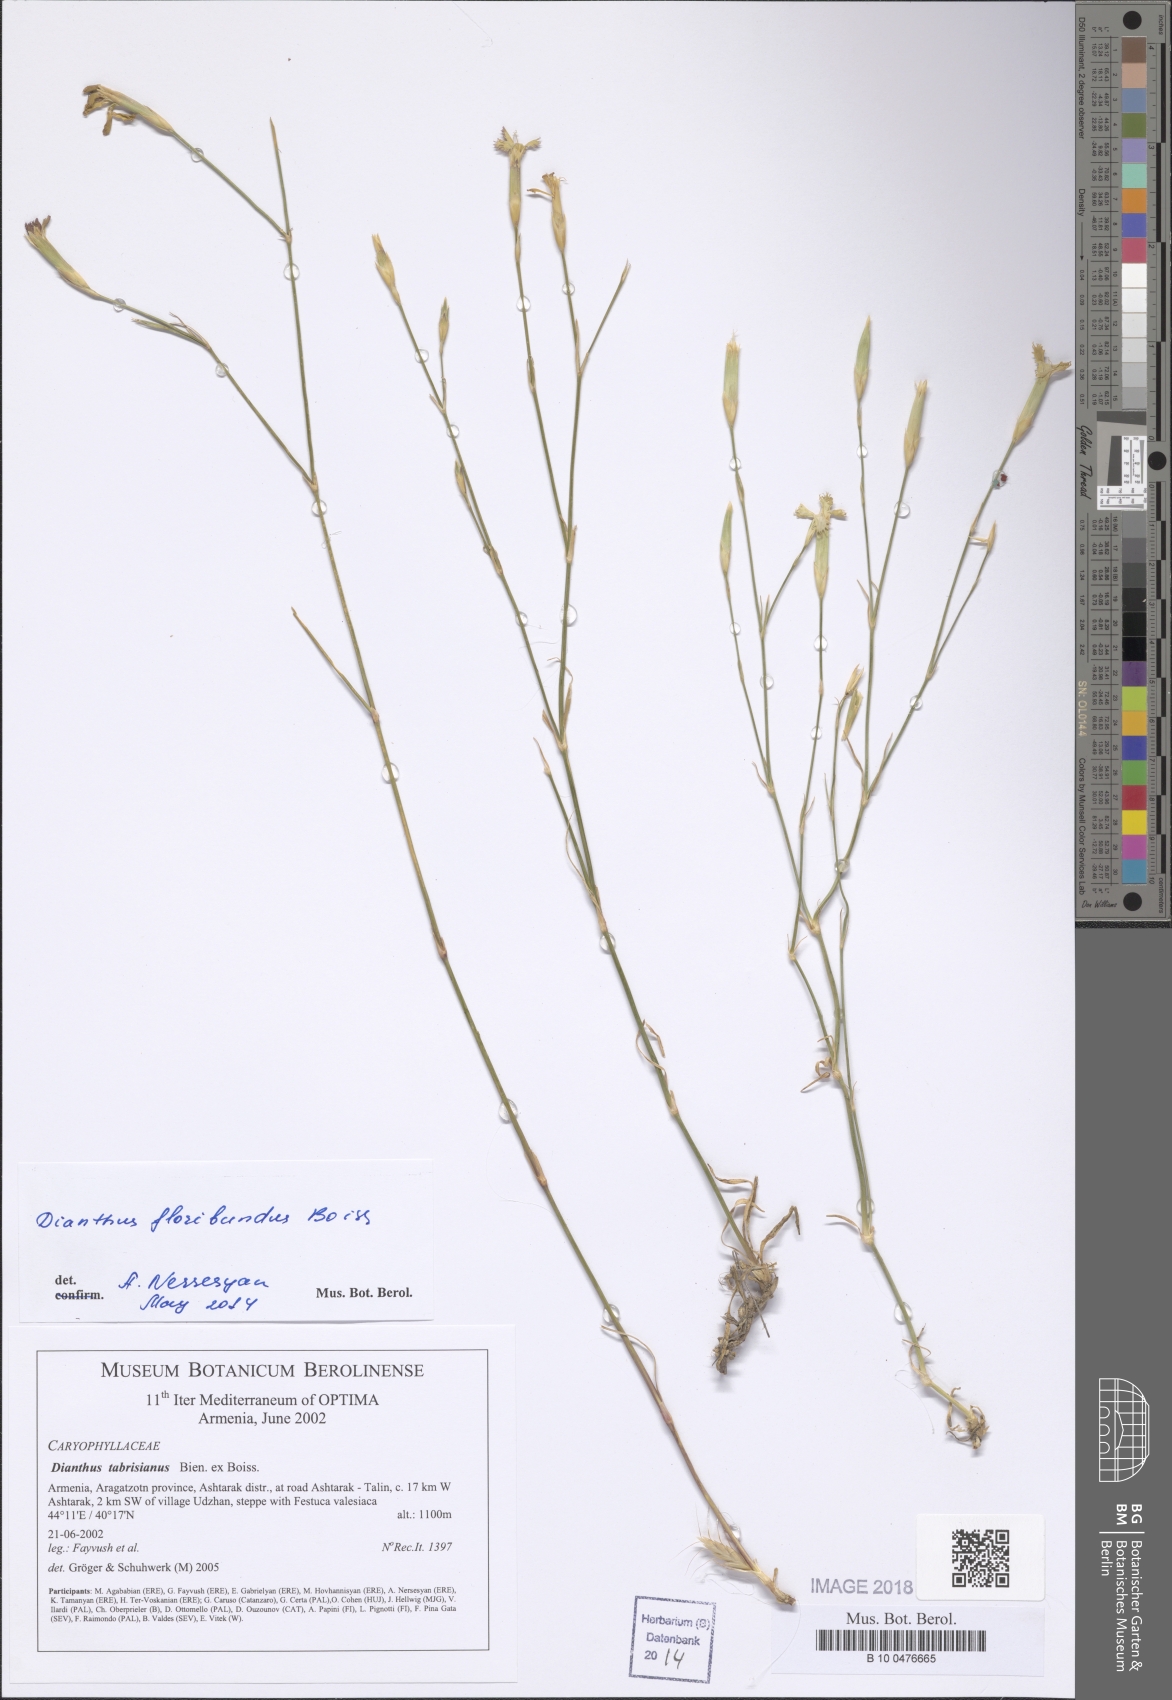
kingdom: Plantae
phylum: Tracheophyta
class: Magnoliopsida
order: Caryophyllales
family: Caryophyllaceae
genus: Dianthus
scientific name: Dianthus tabrisianus
